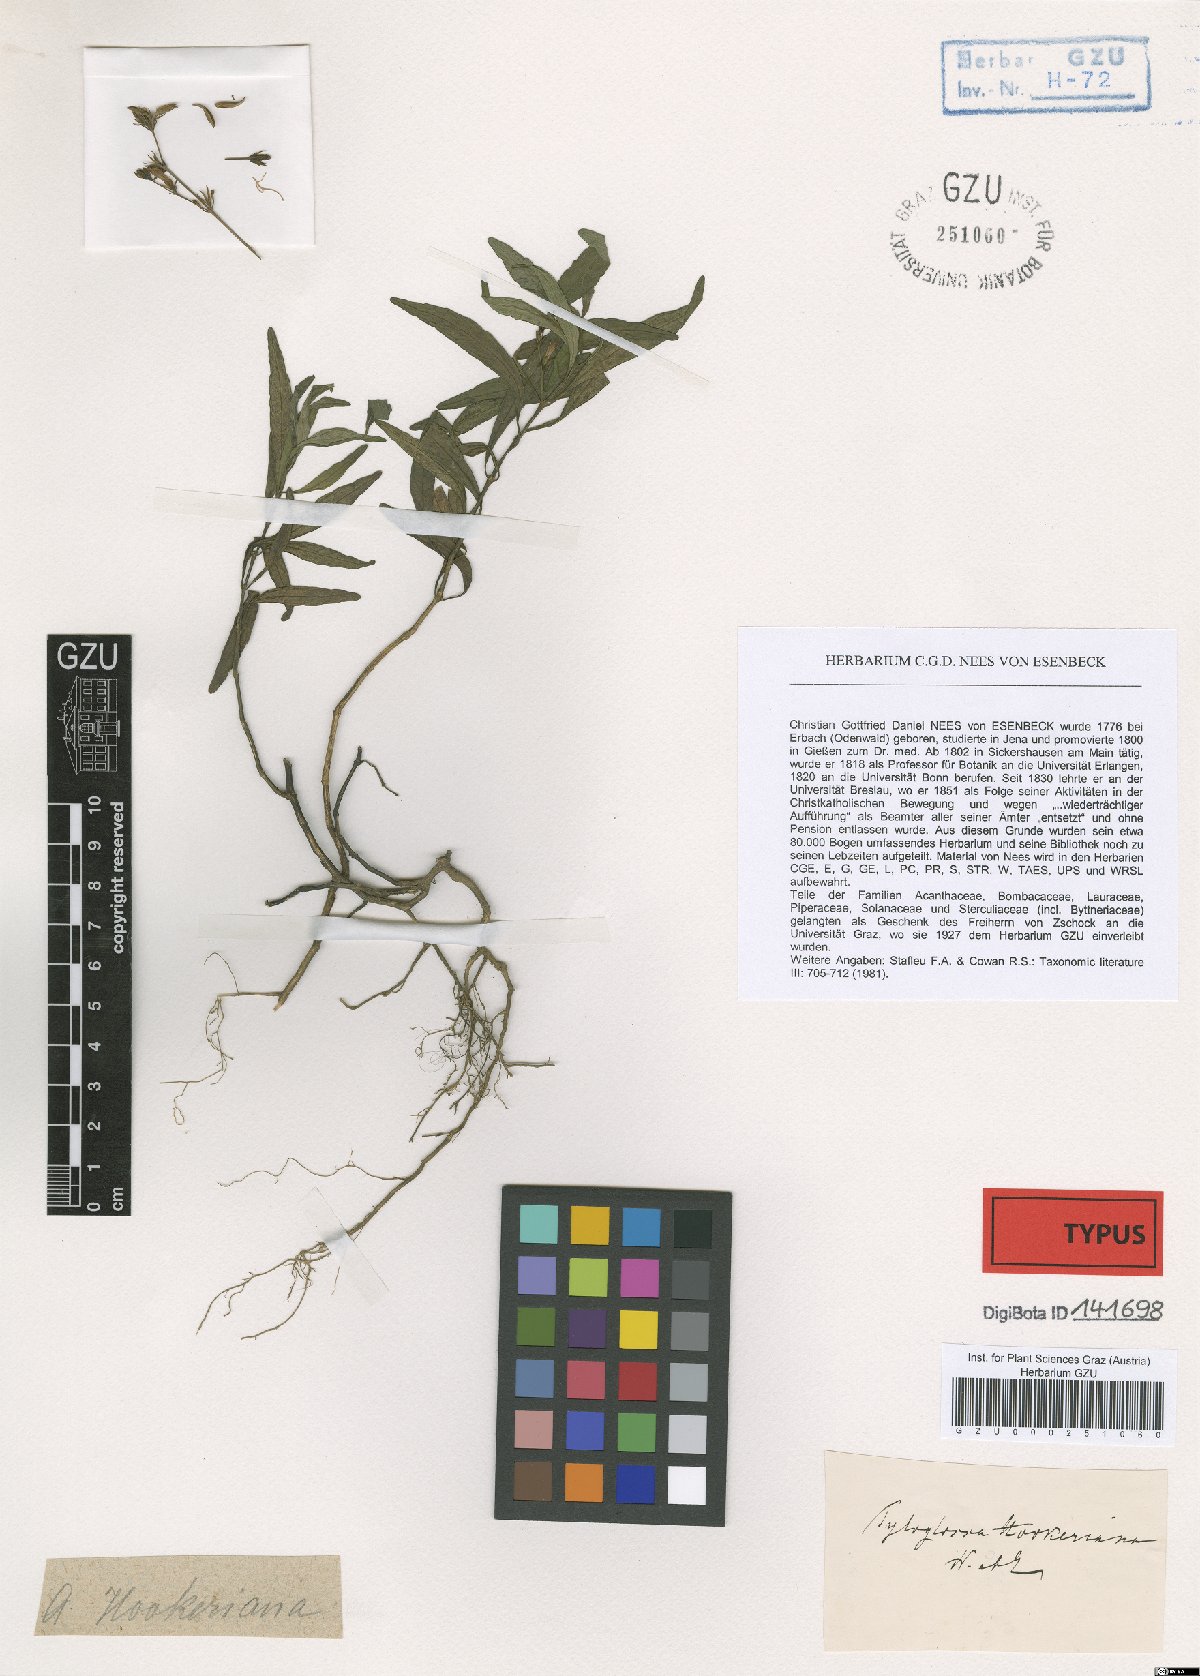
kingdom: Plantae
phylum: Tracheophyta
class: Magnoliopsida
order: Lamiales
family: Acanthaceae
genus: Leptostachya
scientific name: Leptostachya zeylanica
